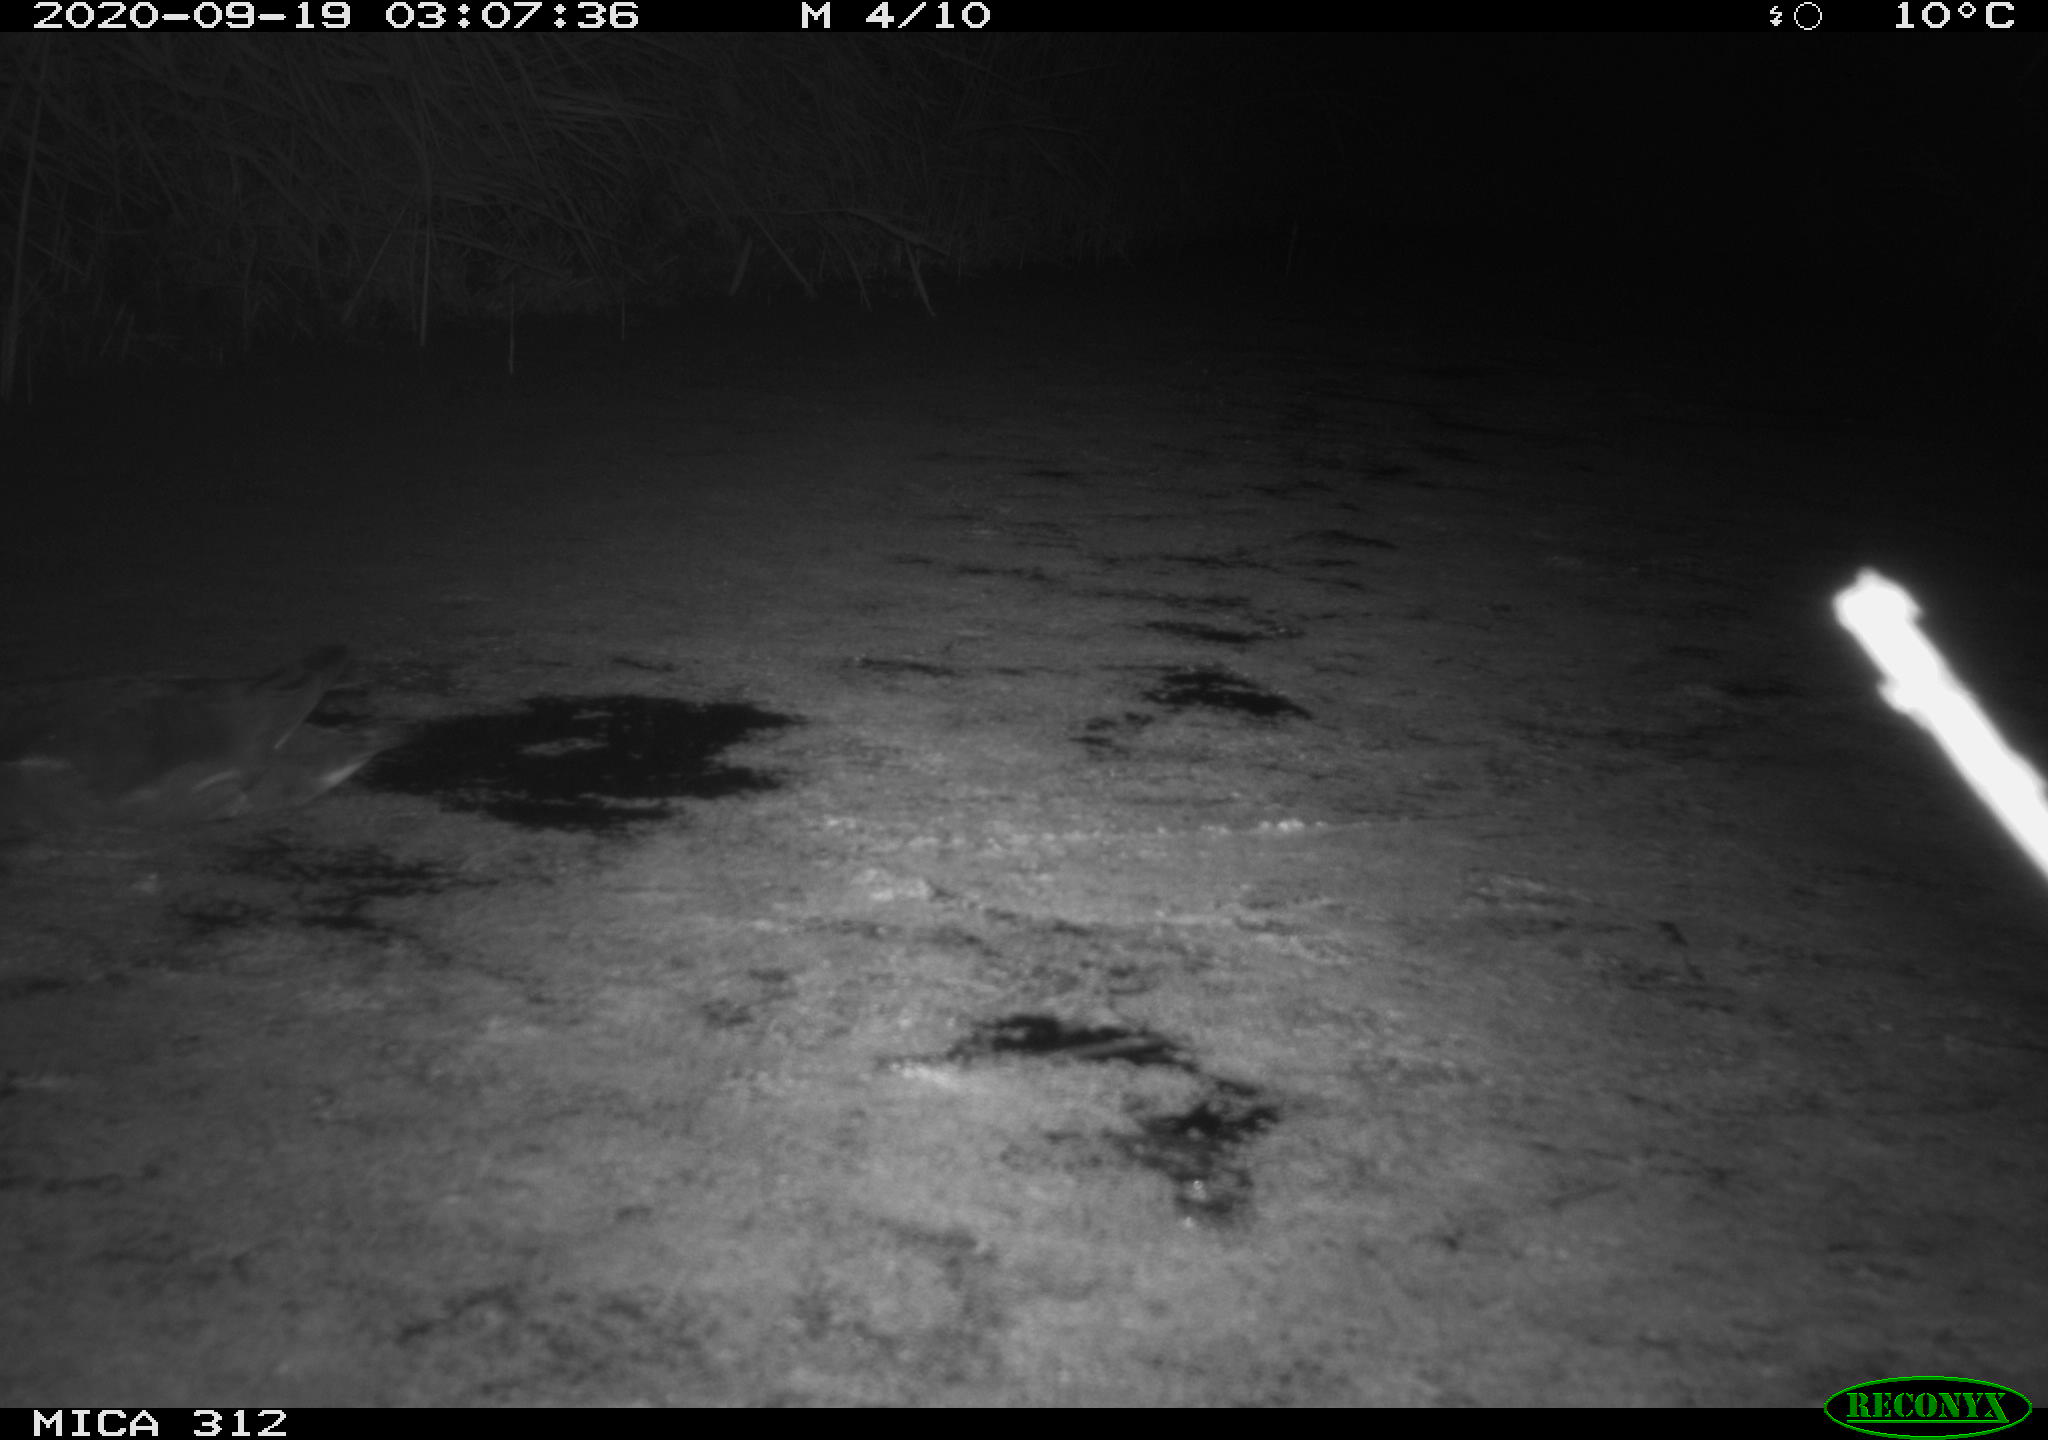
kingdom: Animalia
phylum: Chordata
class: Aves
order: Gruiformes
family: Rallidae
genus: Gallinula
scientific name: Gallinula chloropus
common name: Common moorhen
